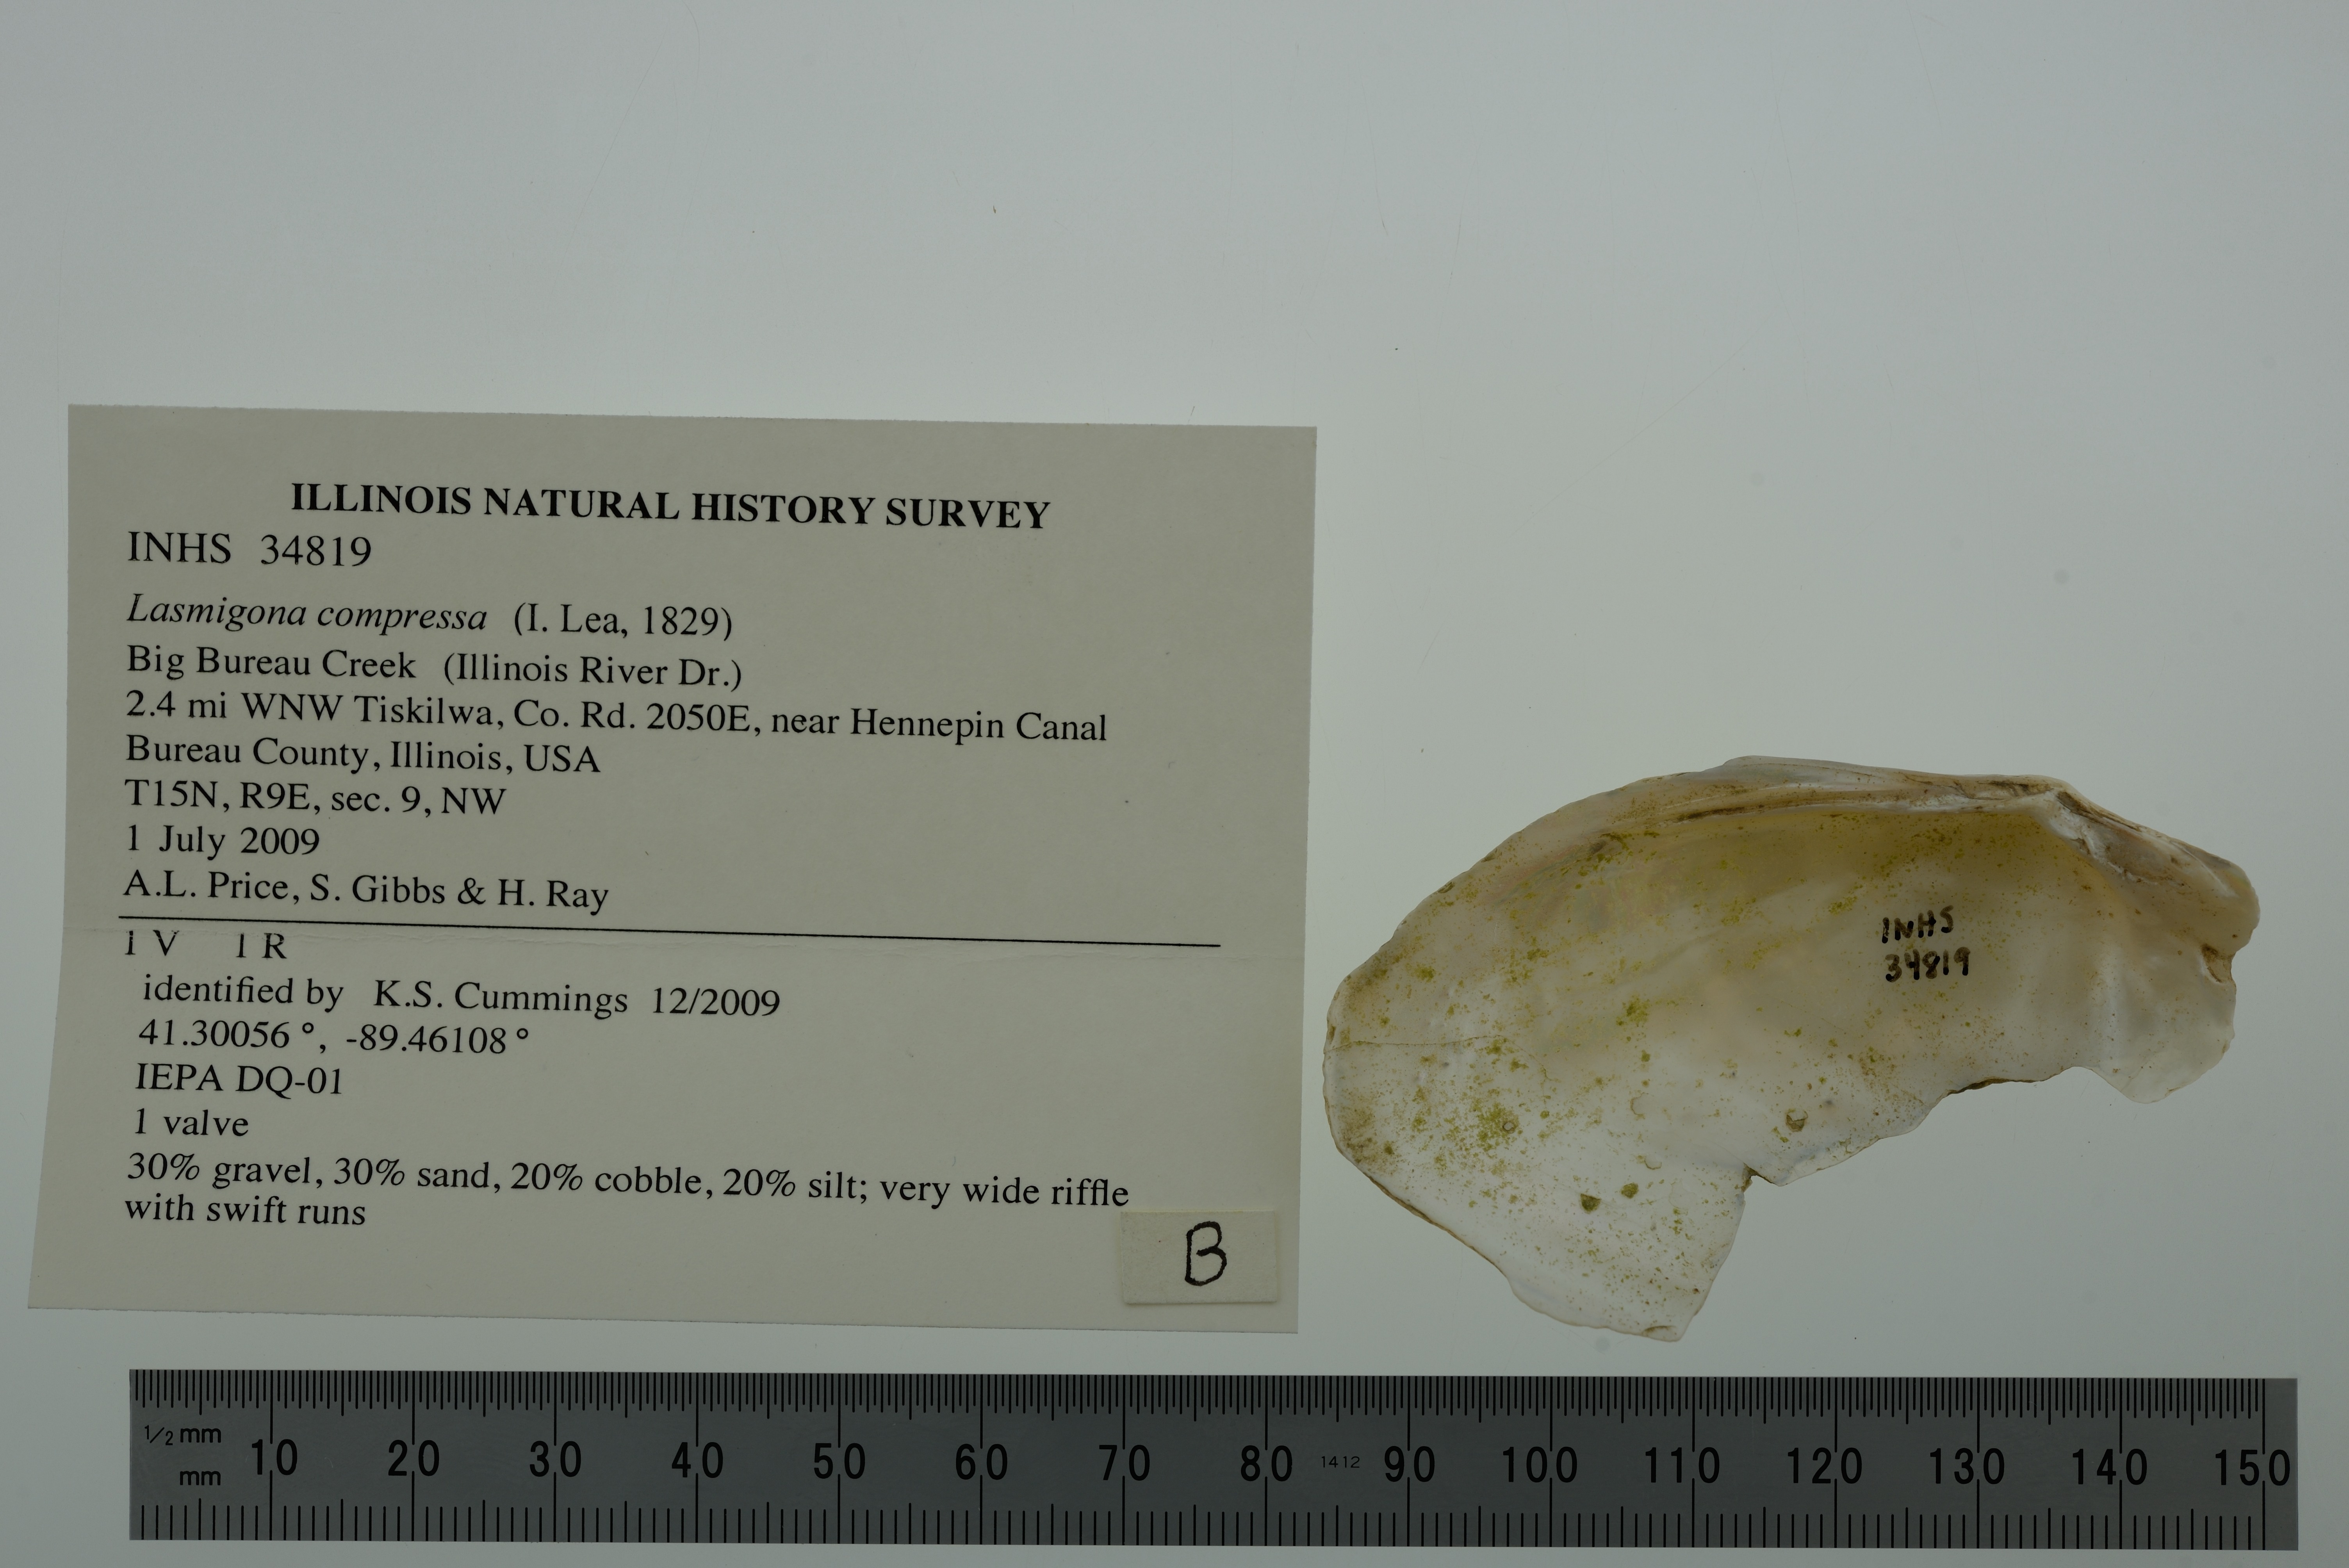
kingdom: Animalia
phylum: Mollusca
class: Bivalvia
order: Unionida
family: Unionidae
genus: Lasmigona
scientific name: Lasmigona compressa
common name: Creek heelsplitter
